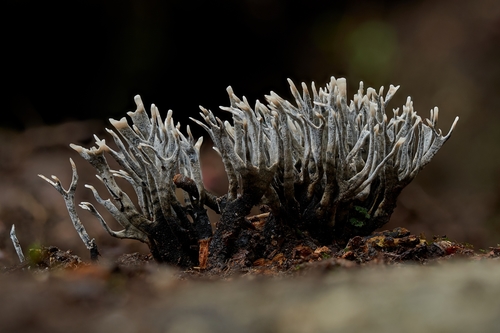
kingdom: Fungi
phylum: Ascomycota
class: Sordariomycetes
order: Xylariales
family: Xylariaceae
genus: Xylaria
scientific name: Xylaria hypoxylon
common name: Candle-snuff fungus
